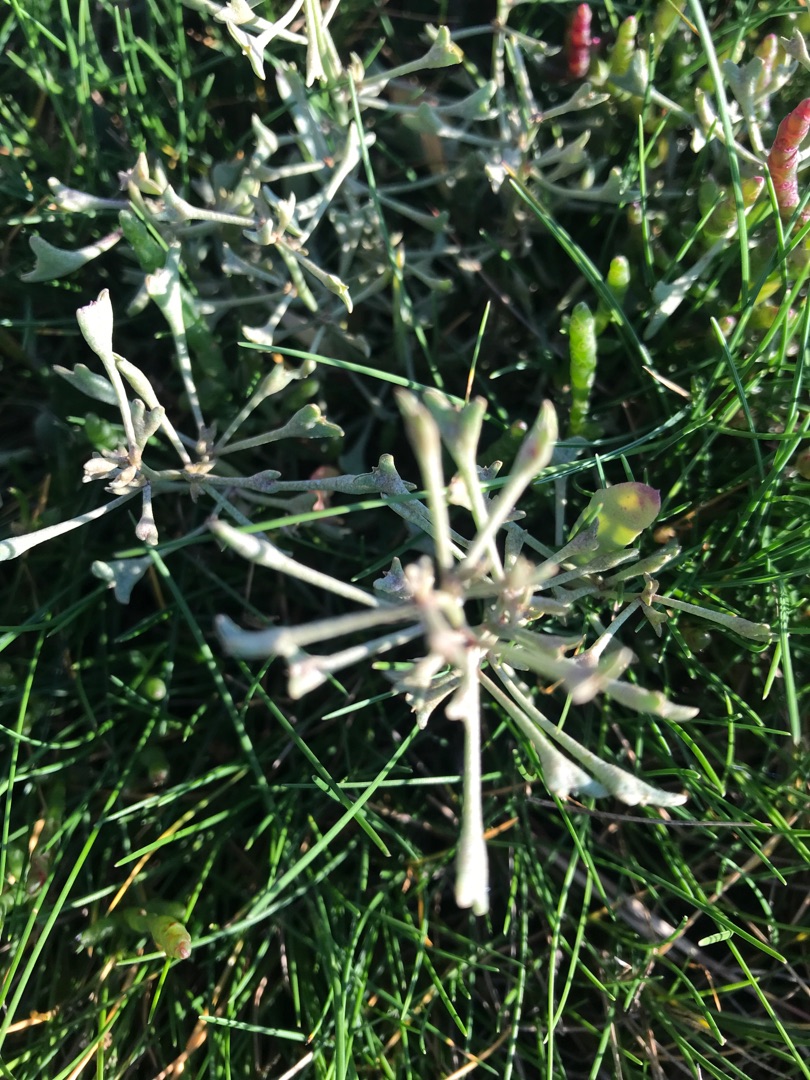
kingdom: Plantae
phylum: Tracheophyta
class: Magnoliopsida
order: Caryophyllales
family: Amaranthaceae
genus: Halimione
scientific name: Halimione pedunculata
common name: Stilket kilebæger
